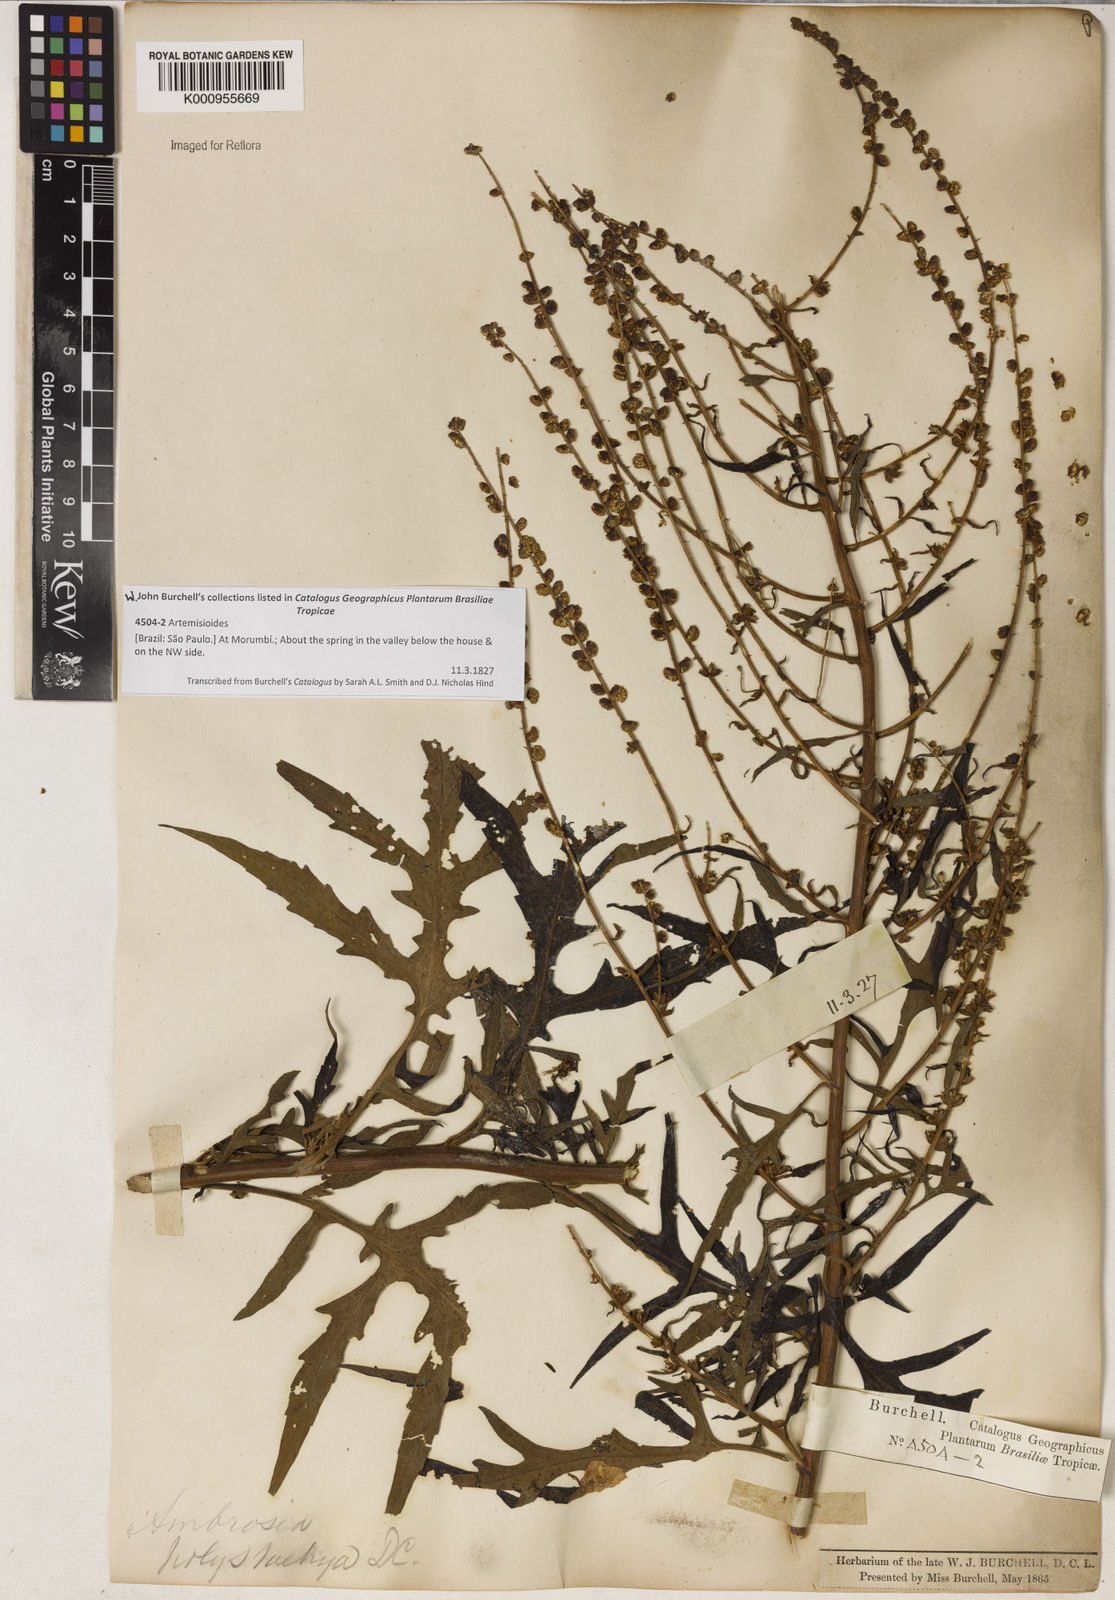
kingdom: Plantae
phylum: Tracheophyta
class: Magnoliopsida
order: Asterales
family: Asteraceae
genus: Ambrosia
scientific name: Ambrosia polystachya
